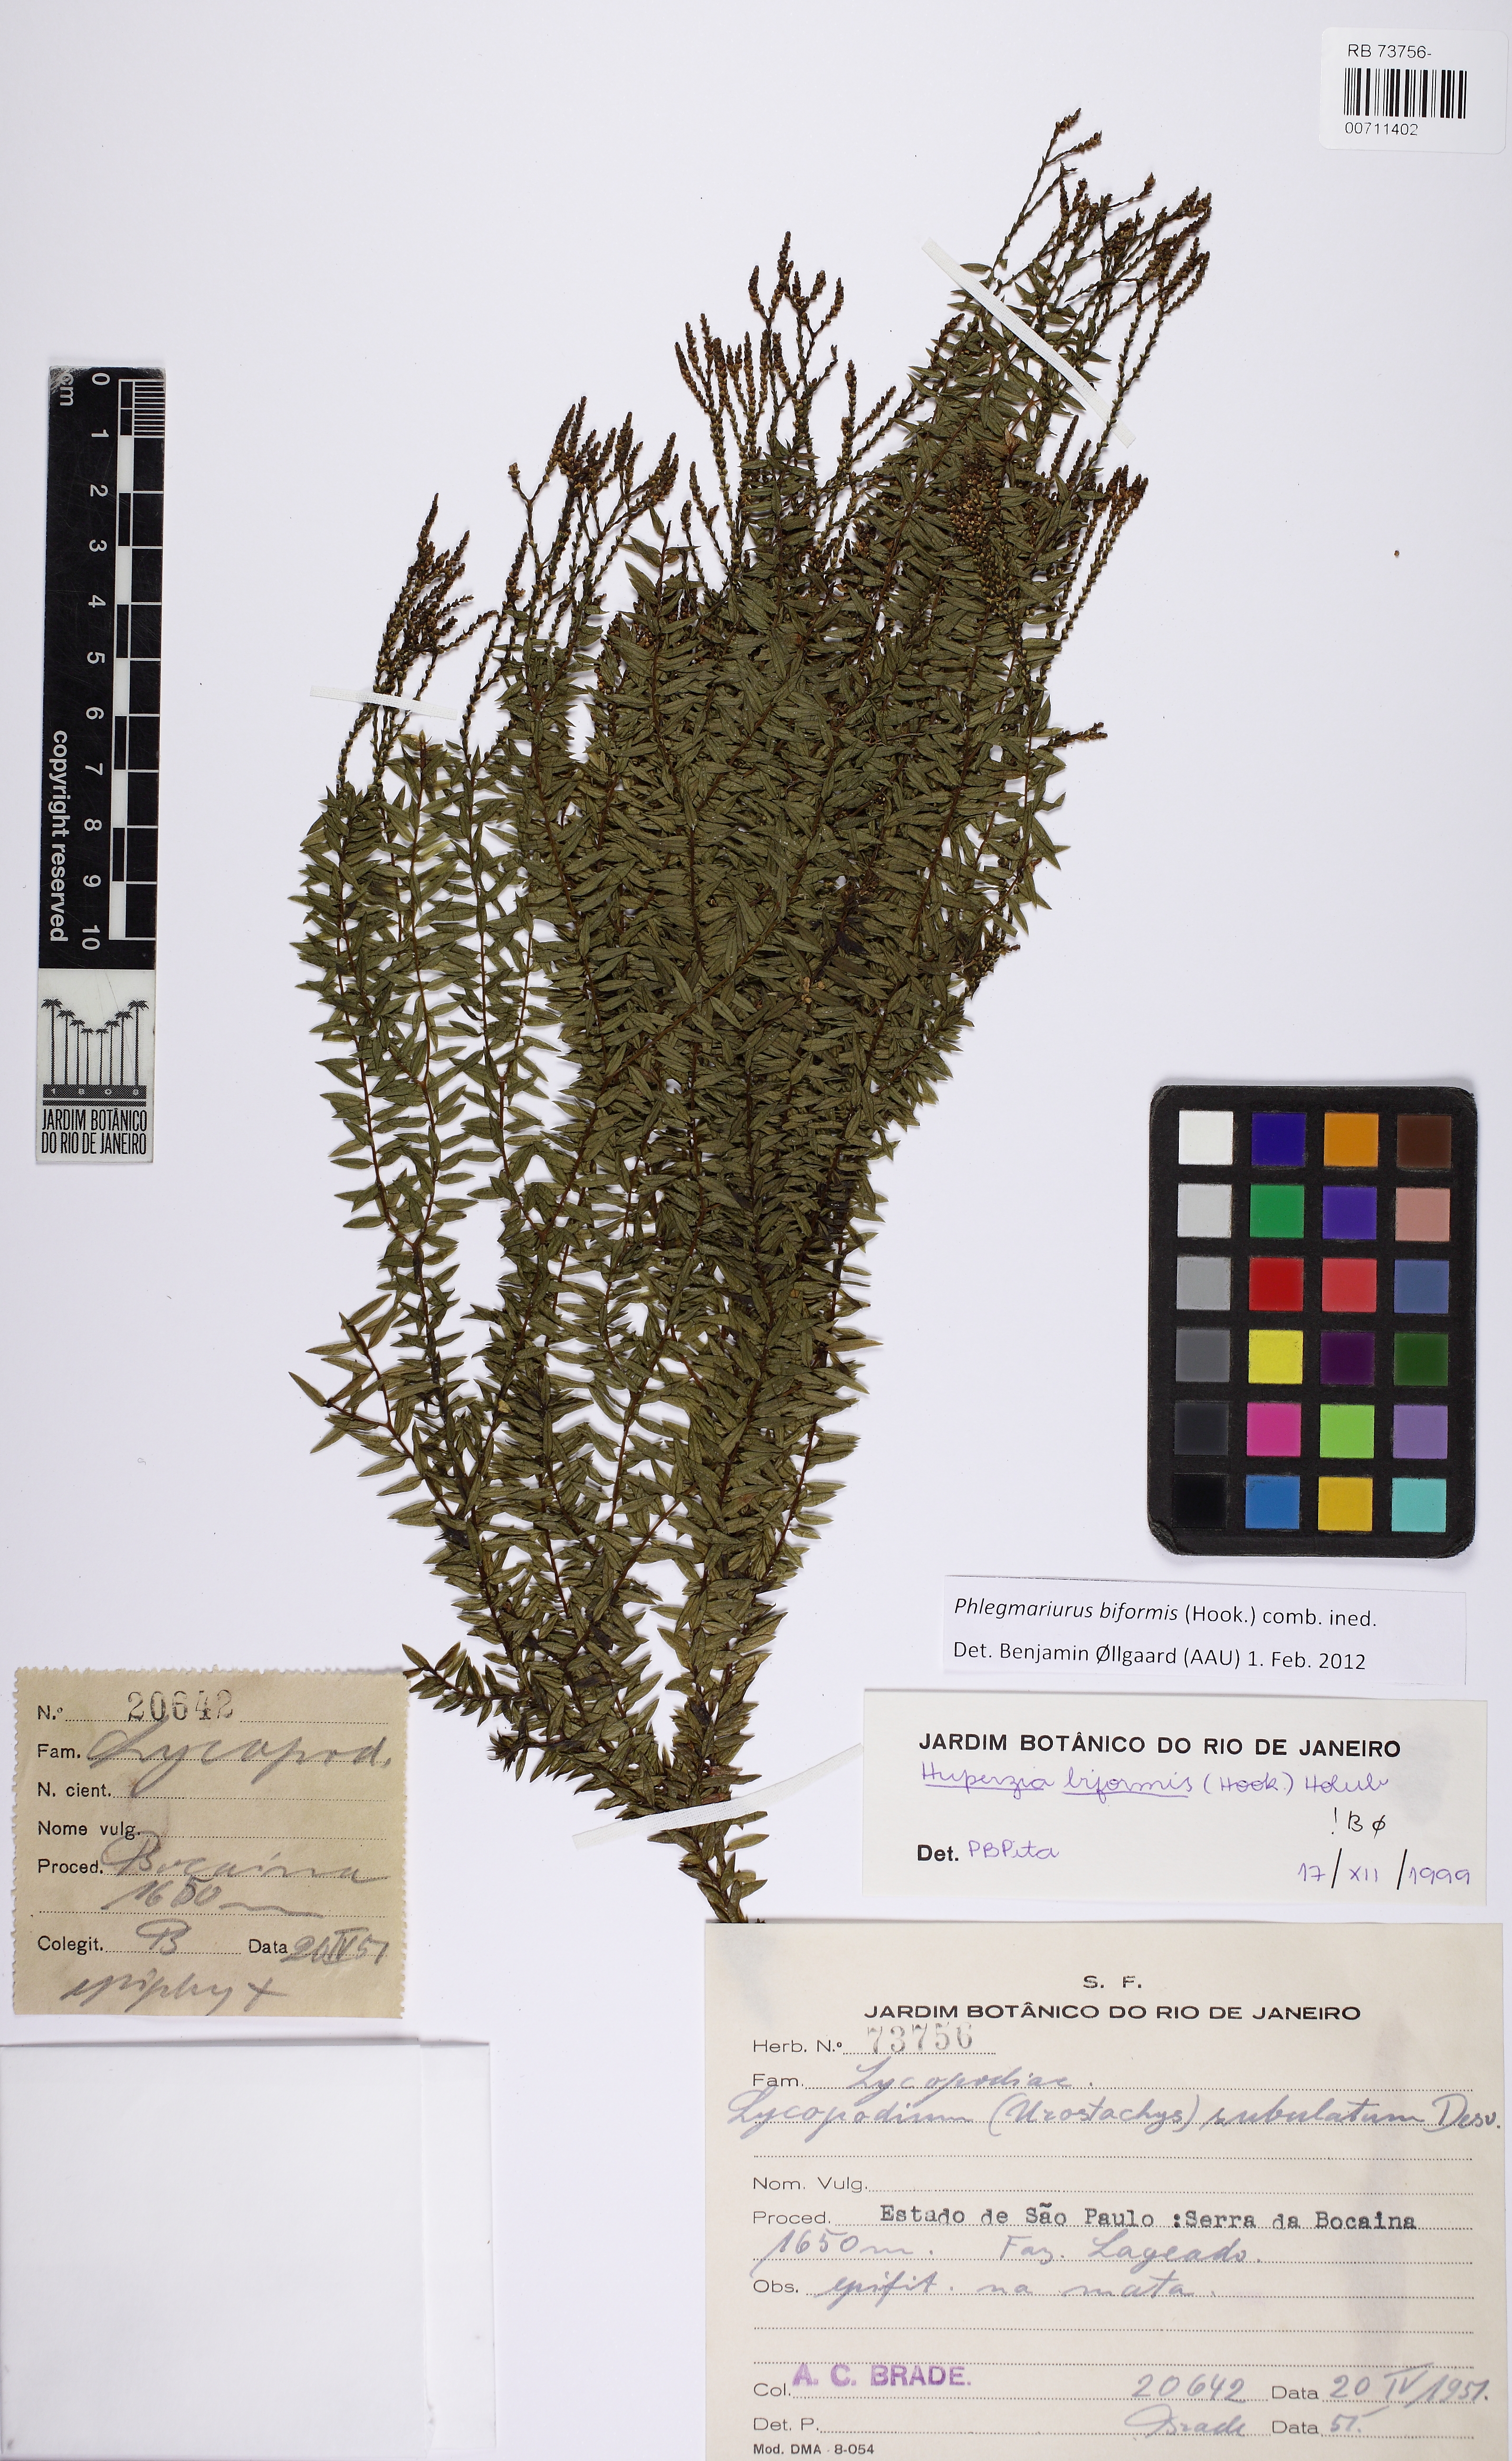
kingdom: Plantae
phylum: Tracheophyta
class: Lycopodiopsida
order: Lycopodiales
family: Lycopodiaceae
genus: Phlegmariurus
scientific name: Phlegmariurus biformis
